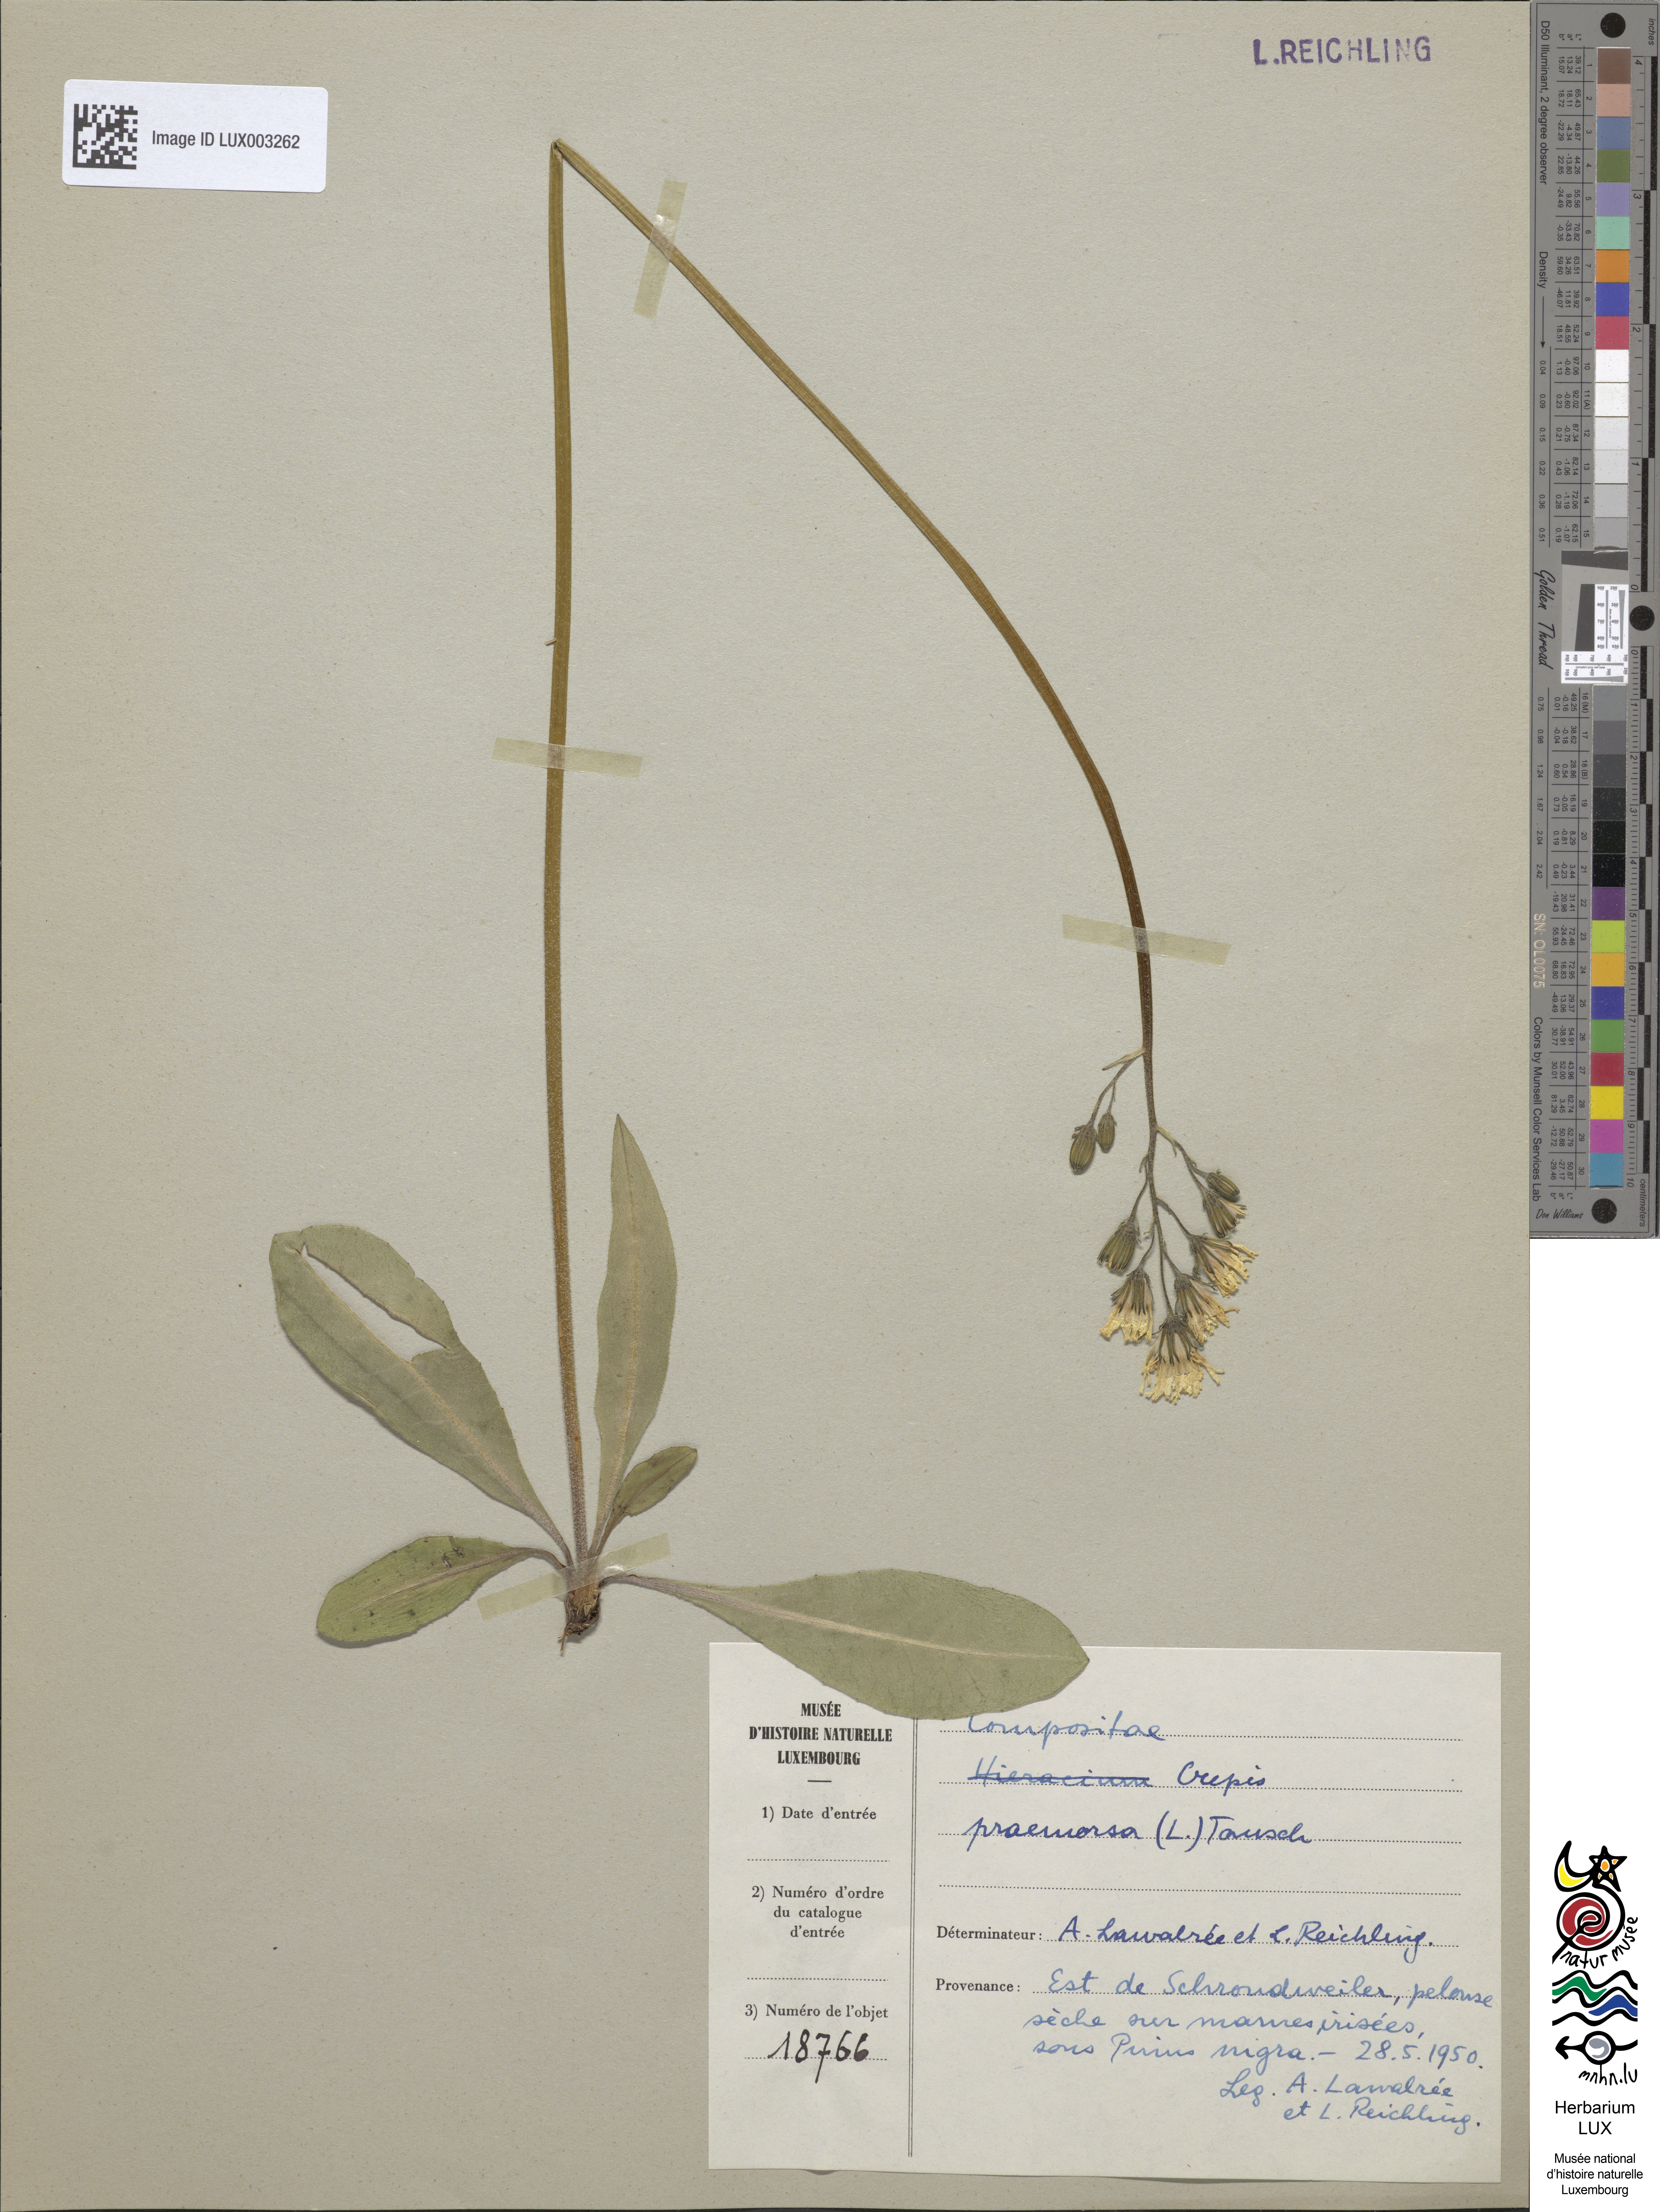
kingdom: Plantae
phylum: Tracheophyta
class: Magnoliopsida
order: Asterales
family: Asteraceae
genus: Crepis
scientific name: Crepis praemorsa
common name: Leafless hawk's-beard
